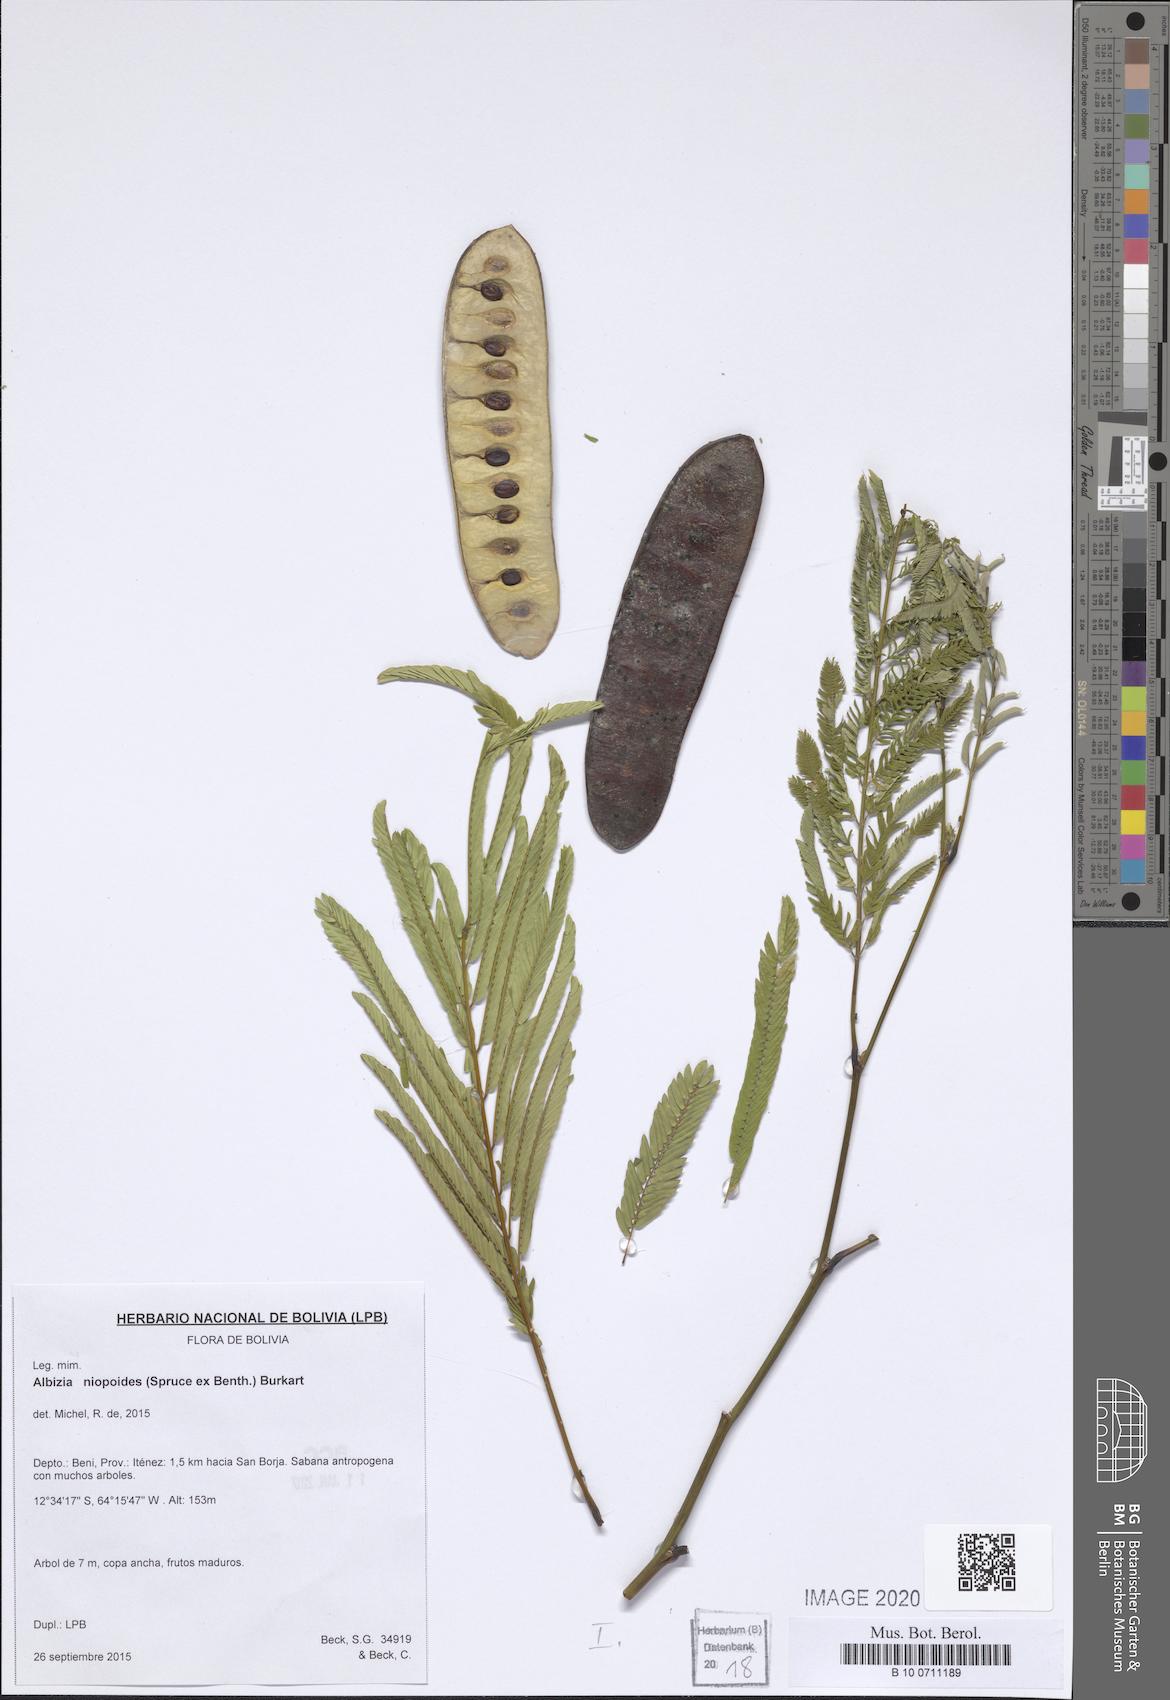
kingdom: Plantae
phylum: Tracheophyta
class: Magnoliopsida
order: Fabales
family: Fabaceae
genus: Albizia
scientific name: Albizia niopoides
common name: Silk tree
